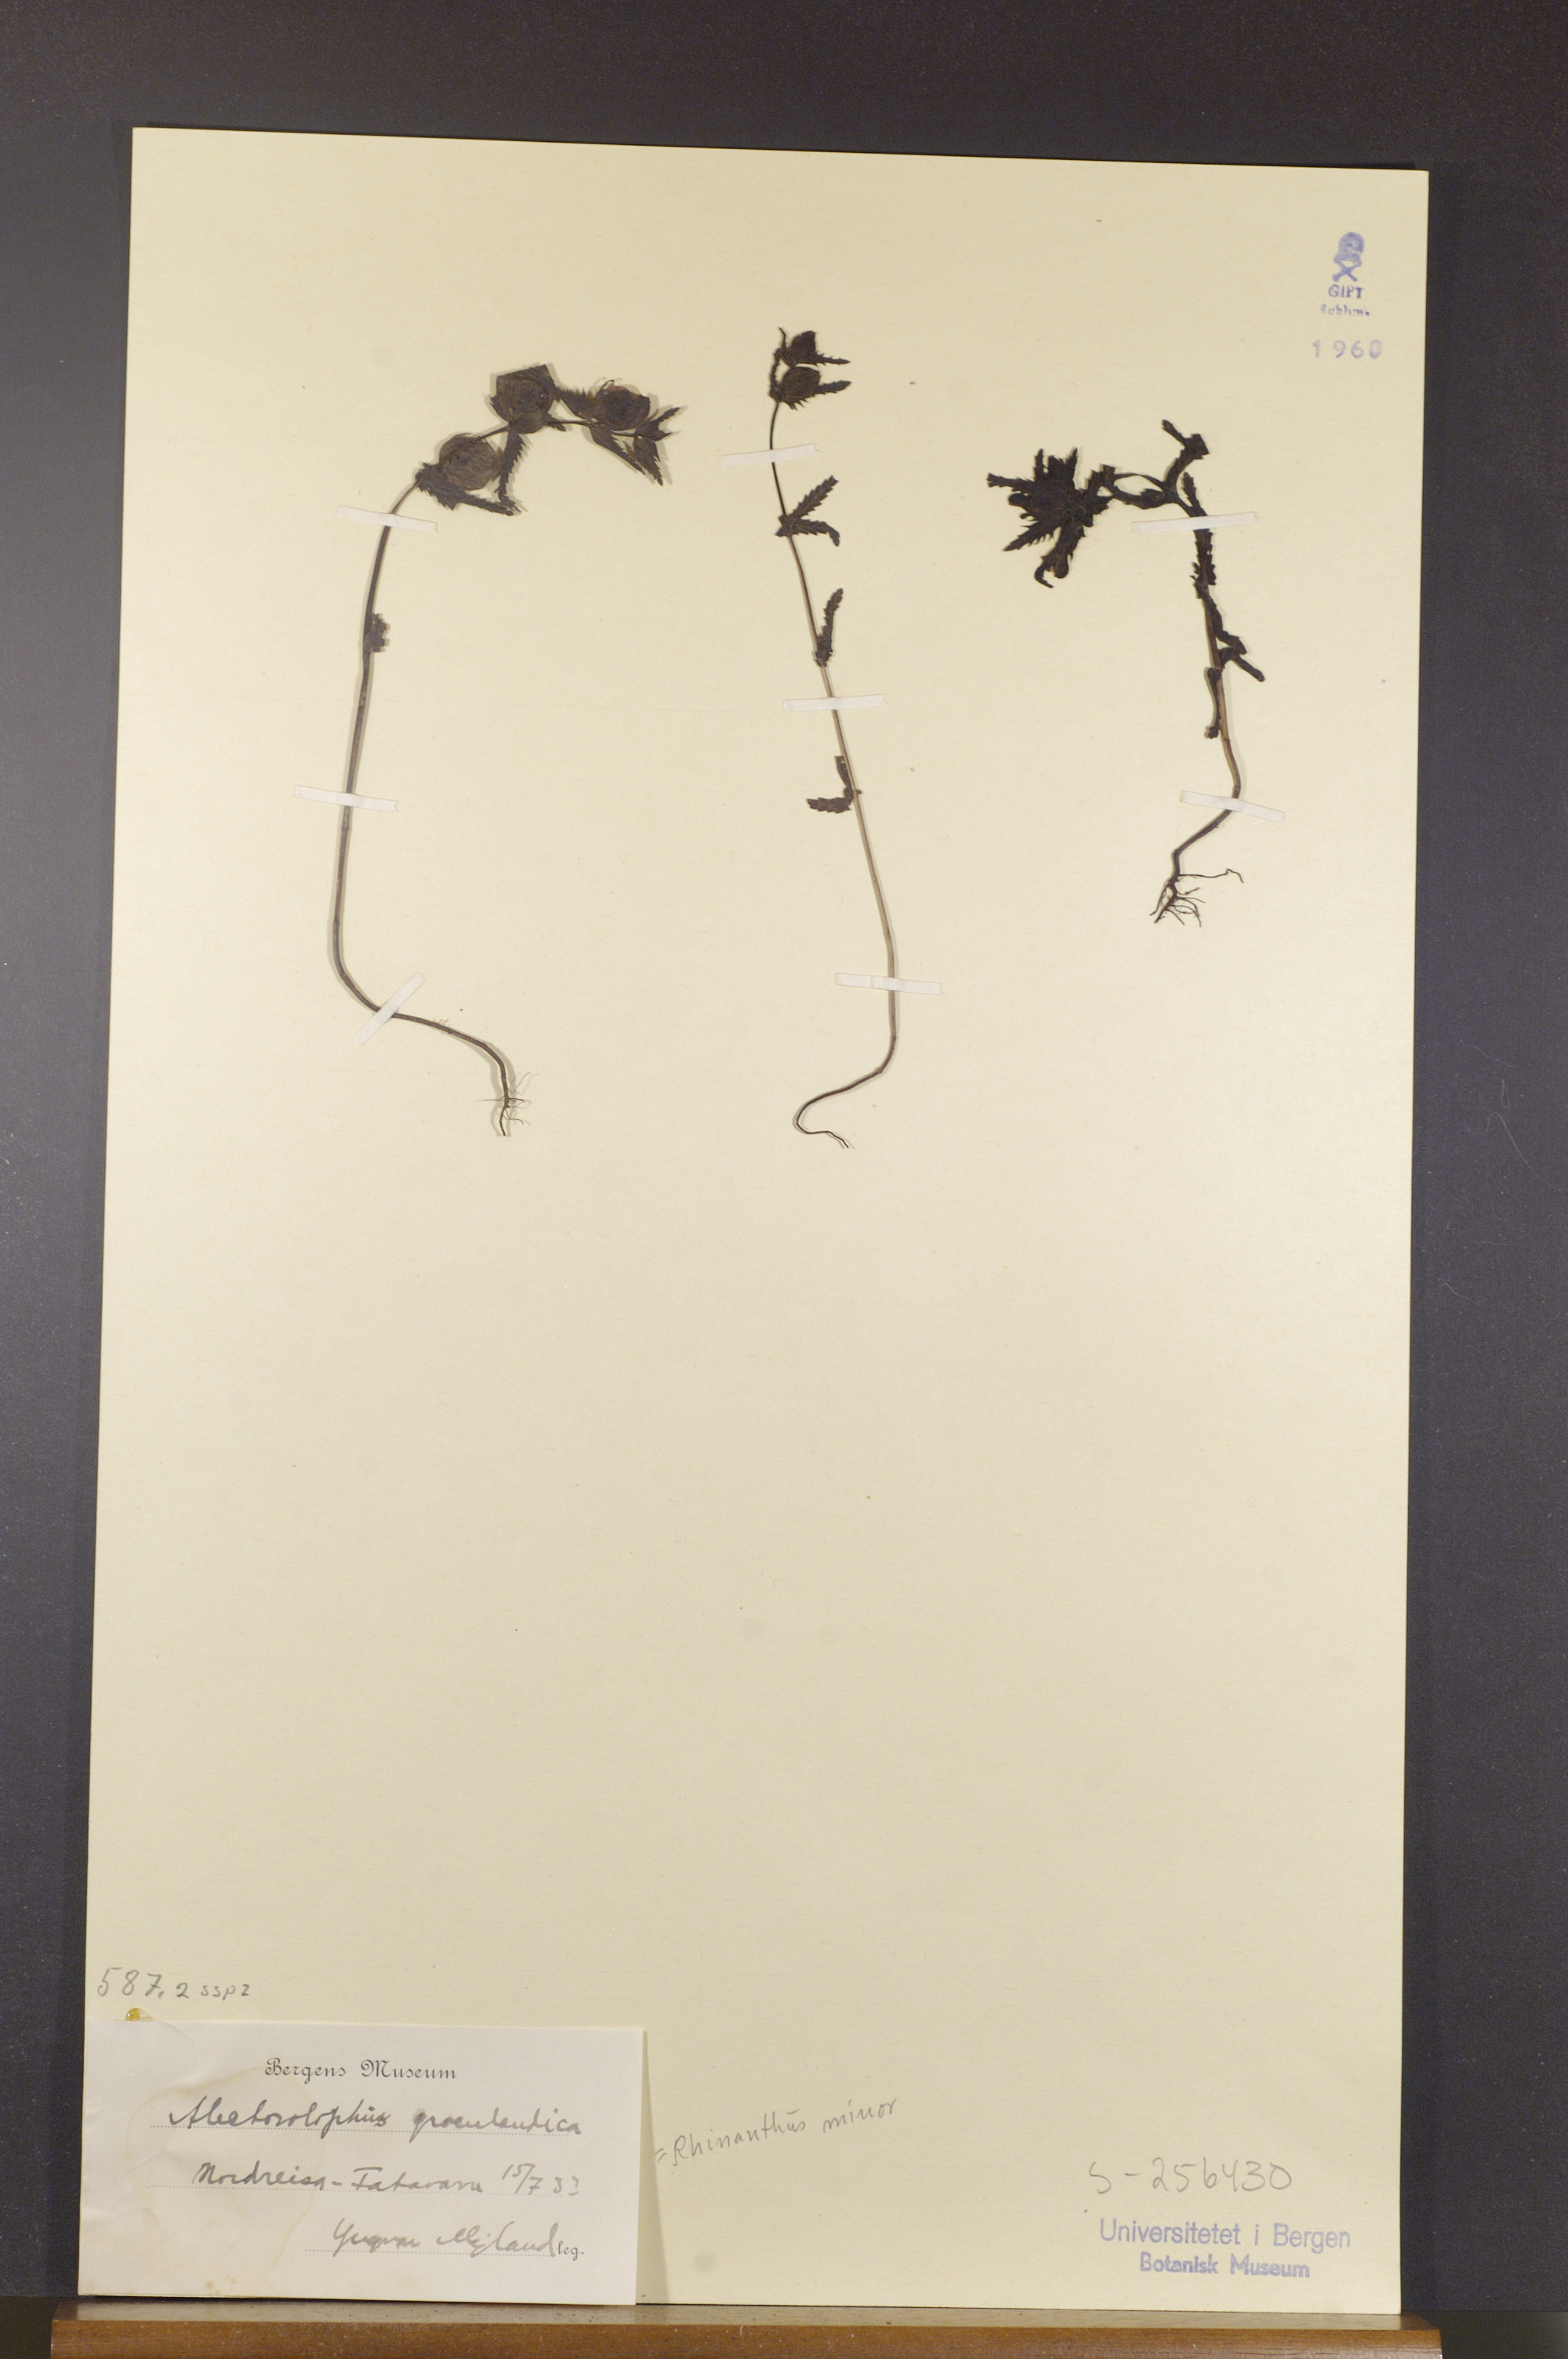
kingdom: Plantae
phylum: Tracheophyta
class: Magnoliopsida
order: Lamiales
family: Orobanchaceae
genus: Rhinanthus
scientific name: Rhinanthus groenlandicus
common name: Little yellow rattle
